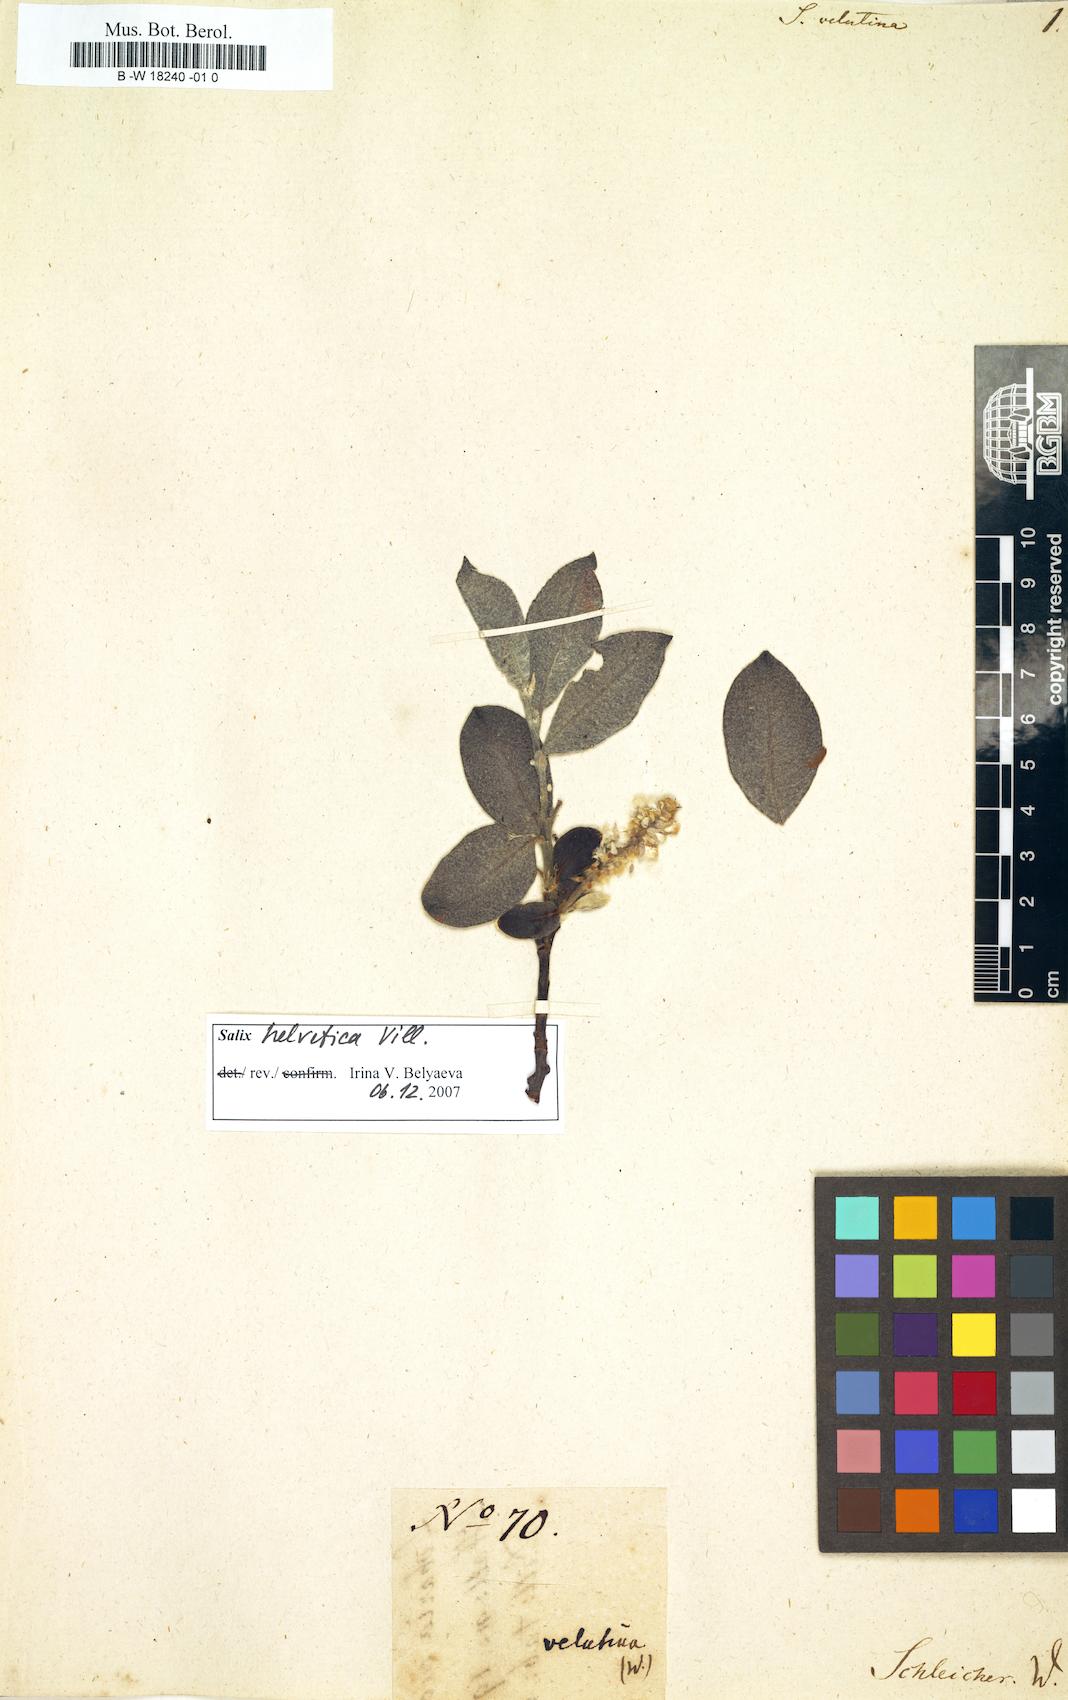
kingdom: Plantae
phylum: Tracheophyta
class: Magnoliopsida
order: Malpighiales
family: Salicaceae
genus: Salix
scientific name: Salix
